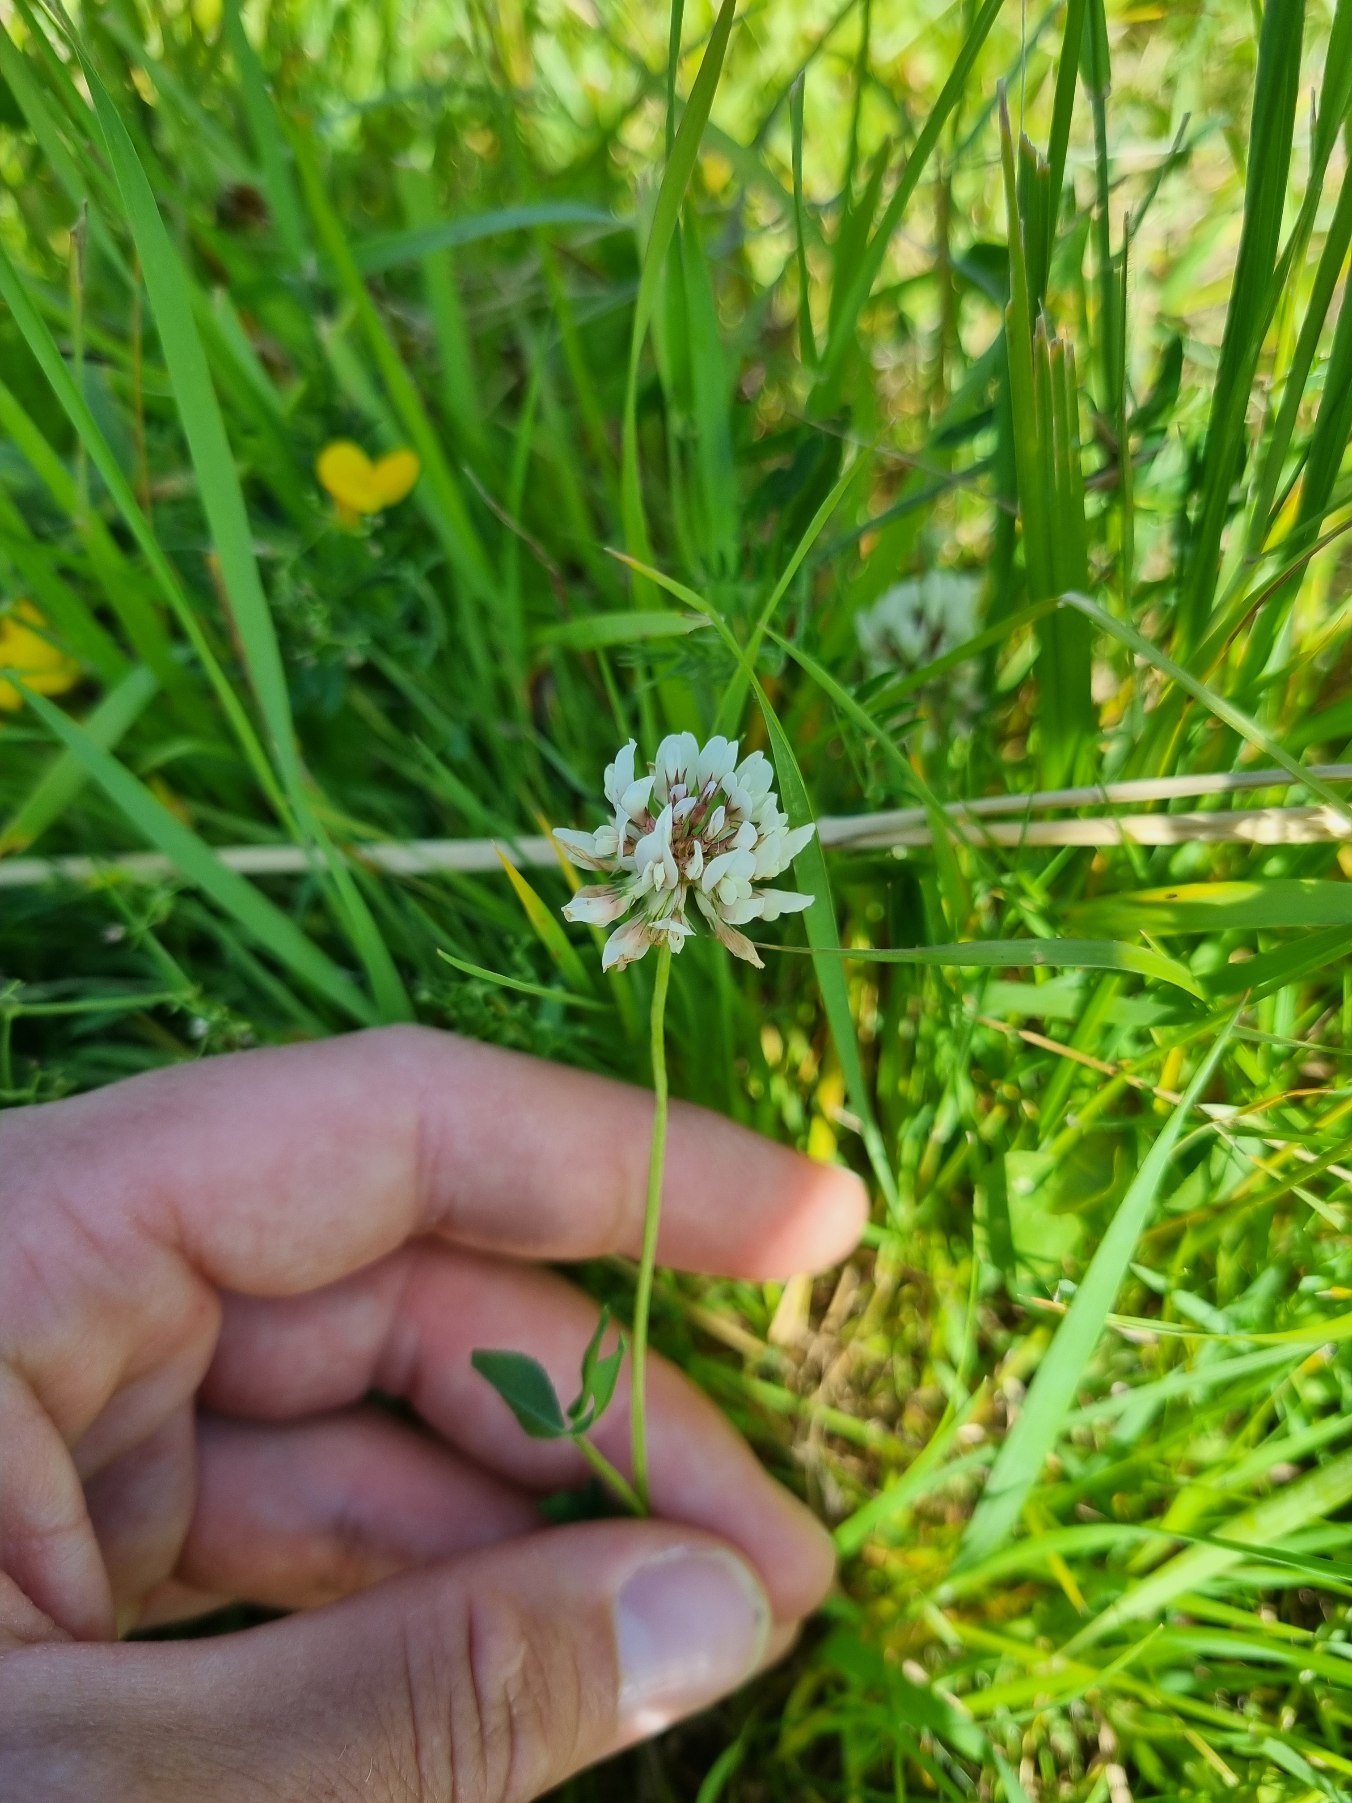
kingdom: Plantae
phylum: Tracheophyta
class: Magnoliopsida
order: Fabales
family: Fabaceae
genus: Trifolium
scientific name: Trifolium repens
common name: Hvid-kløver
